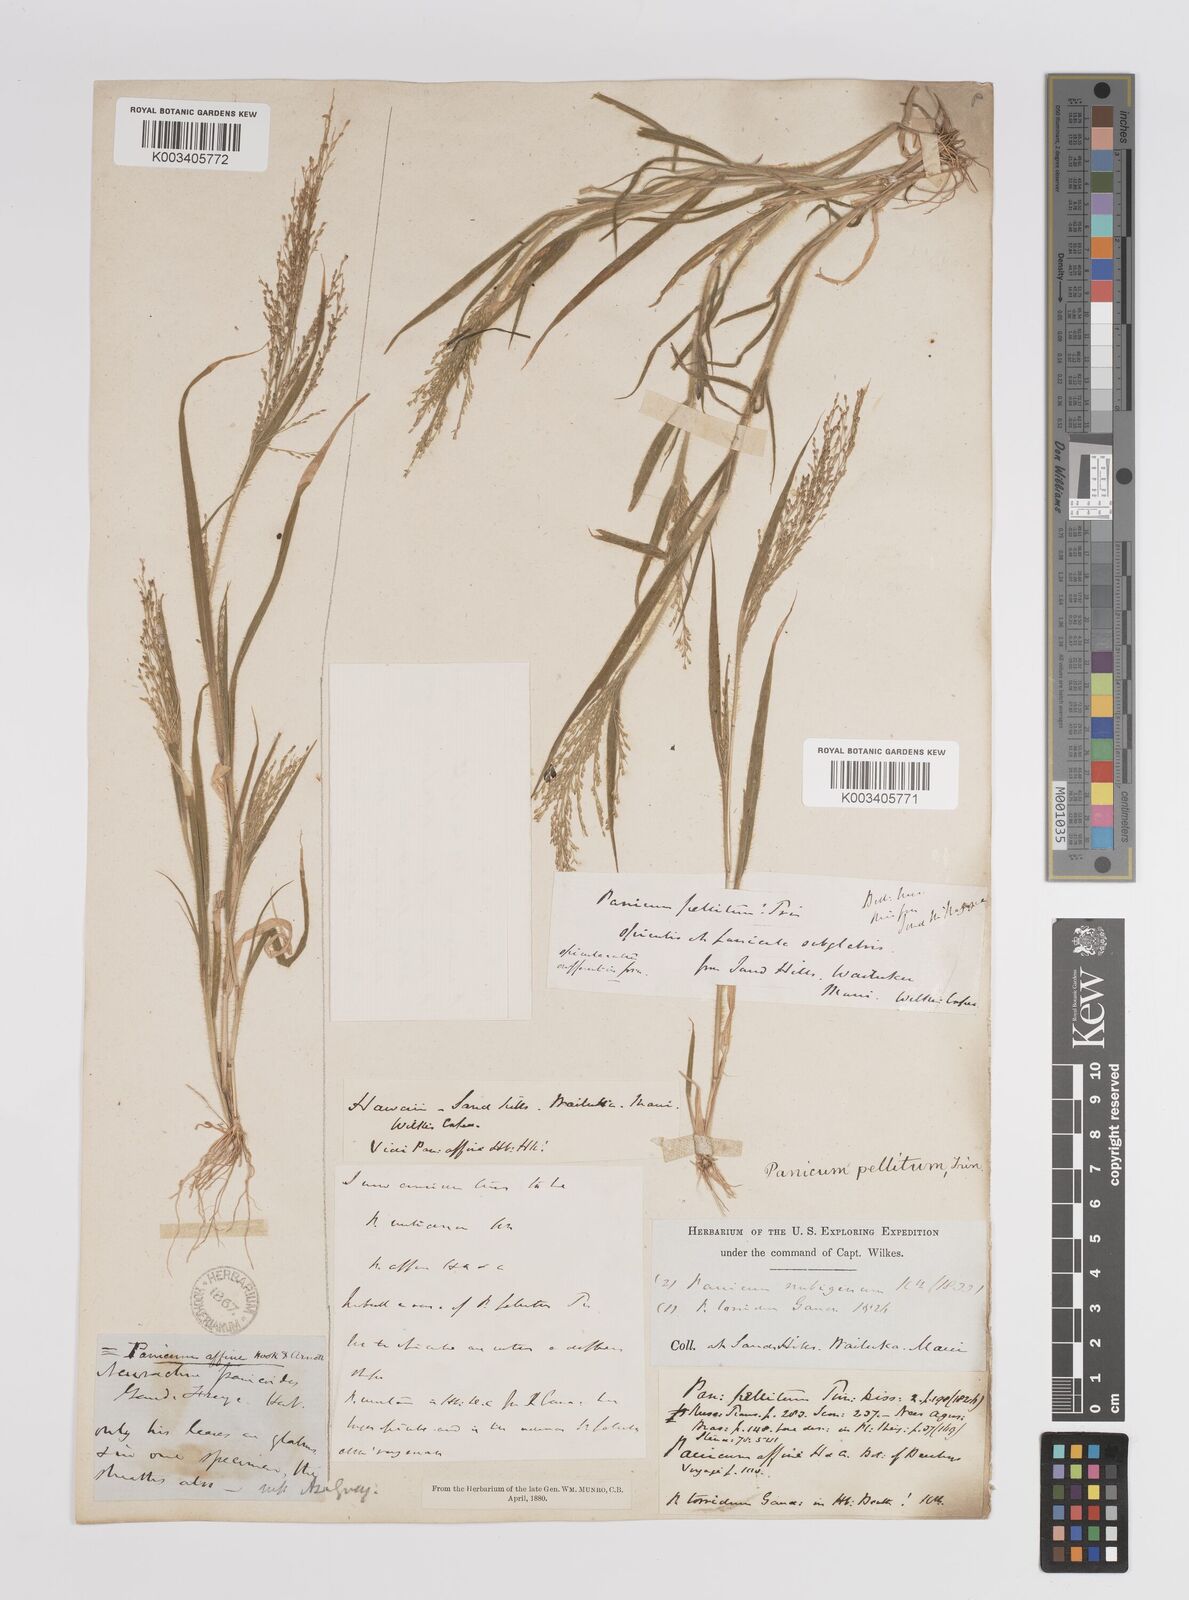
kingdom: Plantae
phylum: Tracheophyta
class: Liliopsida
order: Poales
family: Poaceae
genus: Panicum
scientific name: Panicum pellitum
